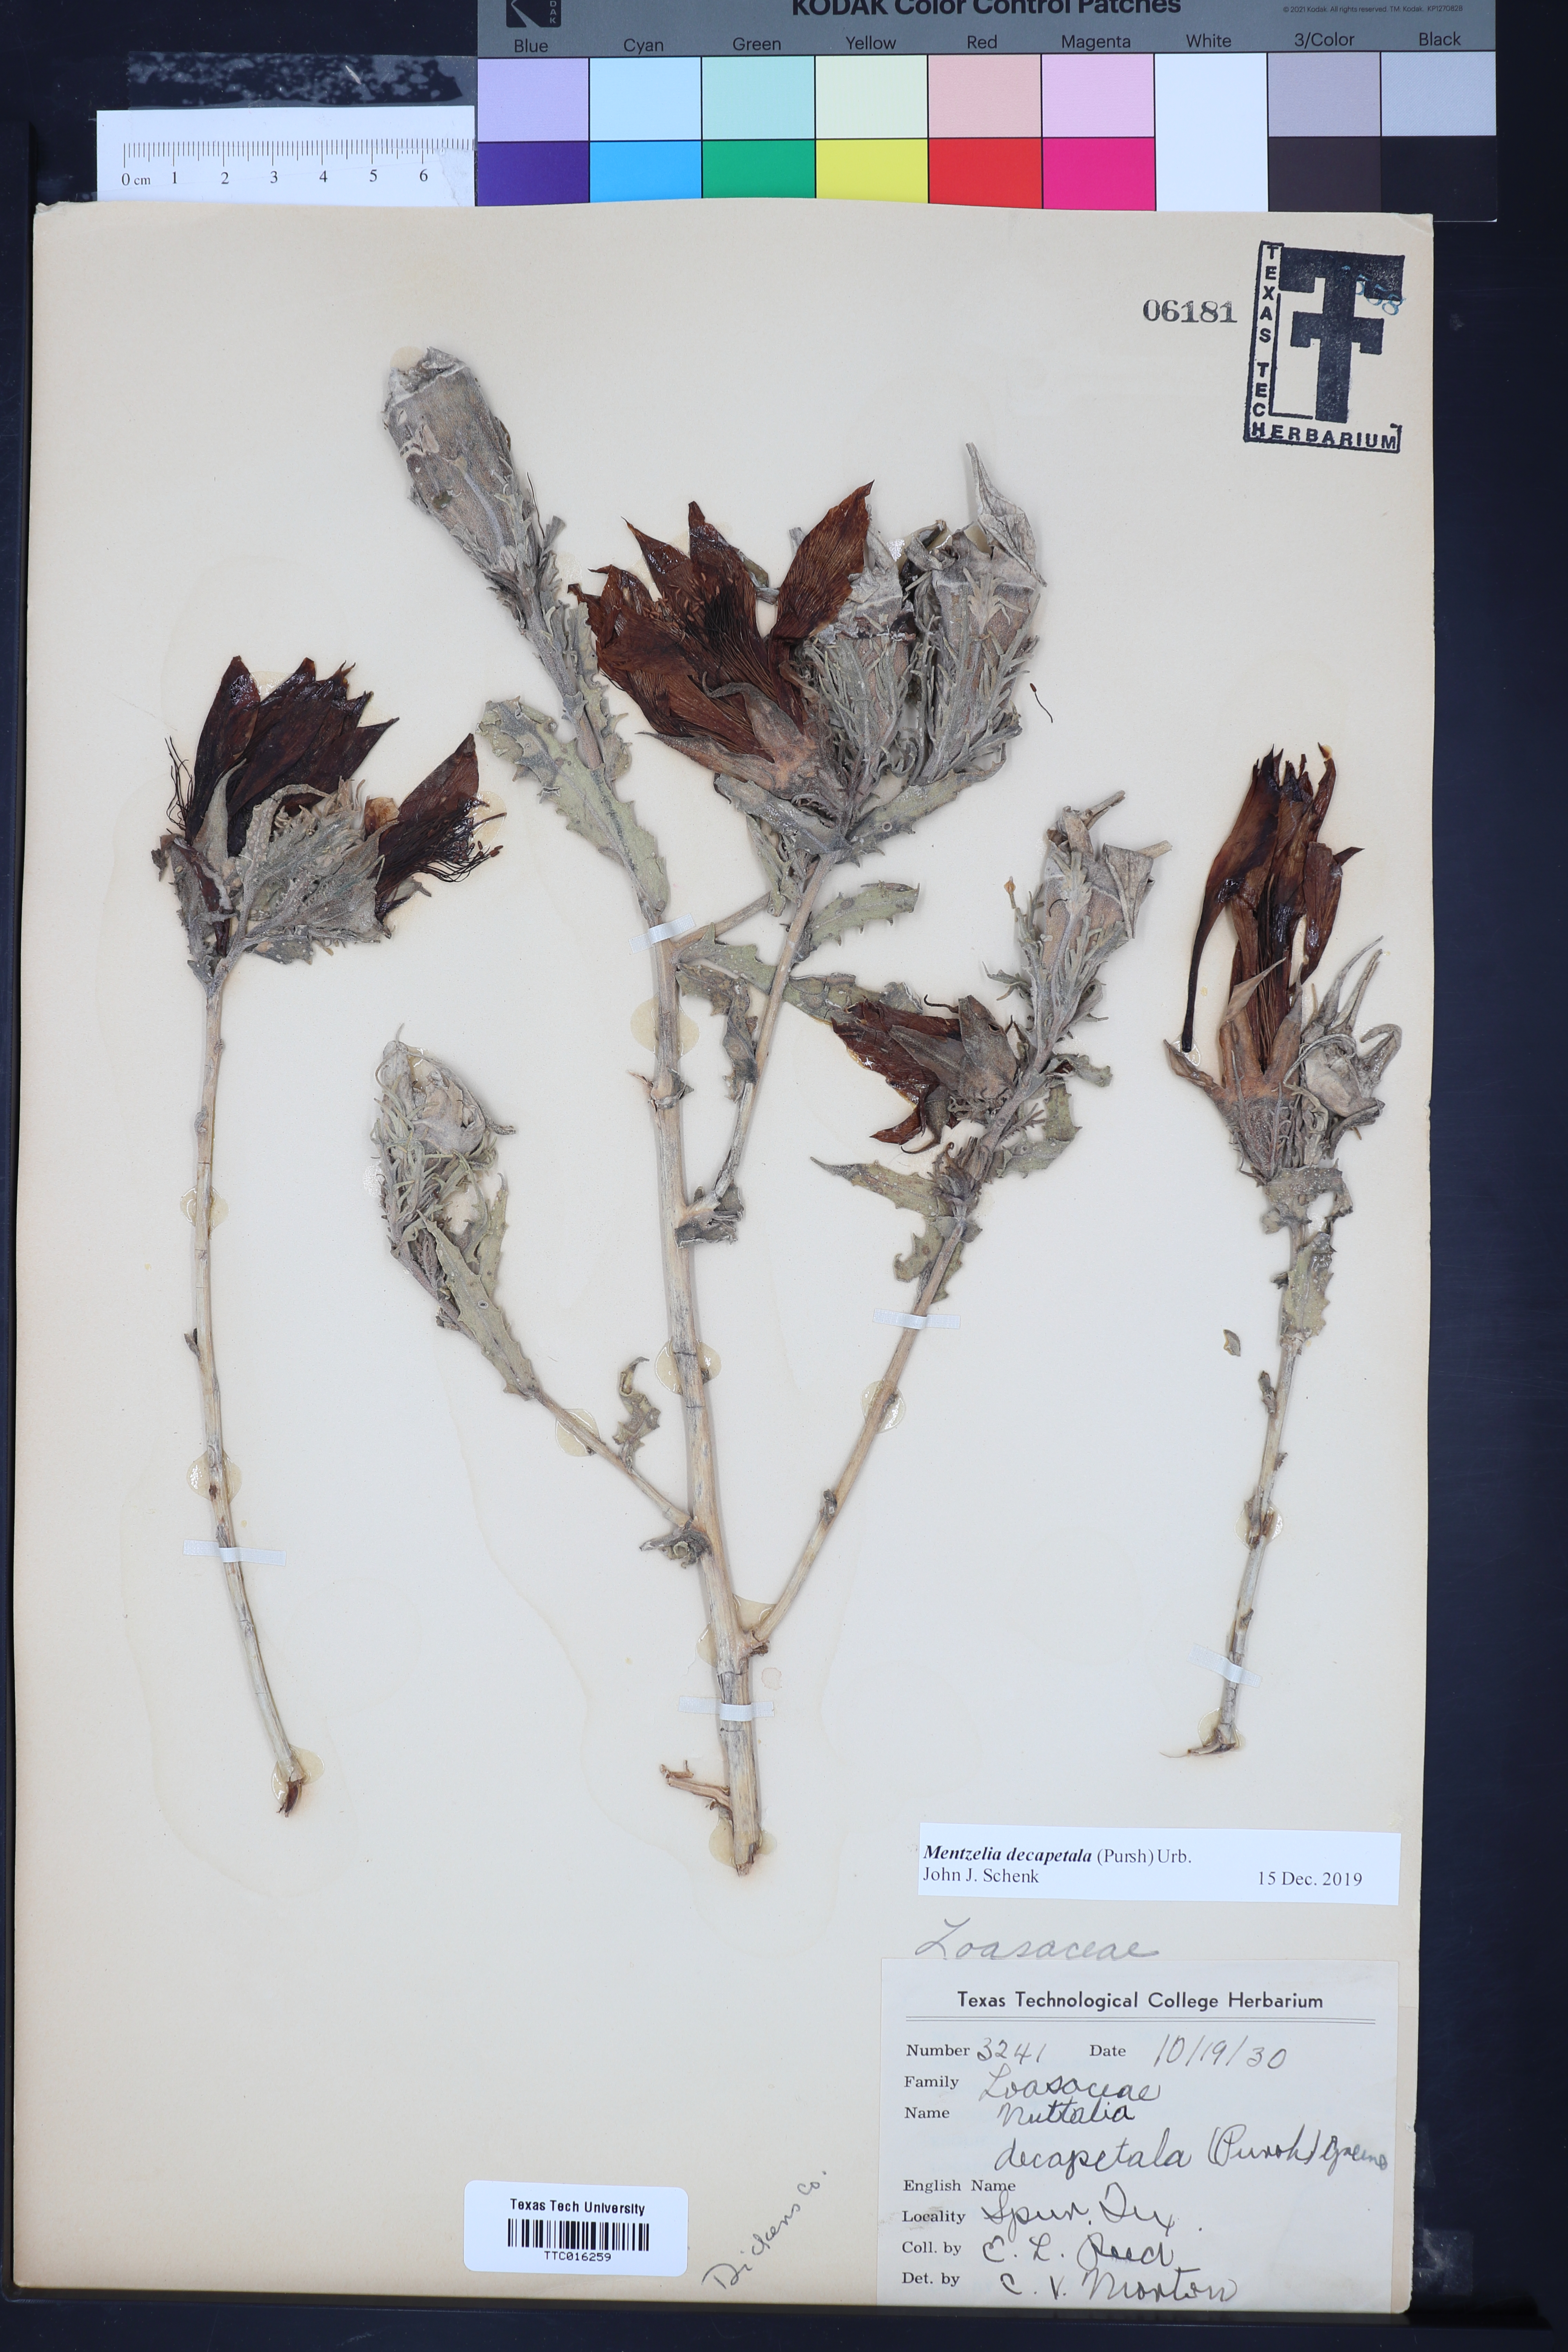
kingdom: Plantae
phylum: Tracheophyta
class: Magnoliopsida
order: Cornales
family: Loasaceae
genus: Mentzelia
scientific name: Mentzelia decapetala
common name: Gumbo-lily
